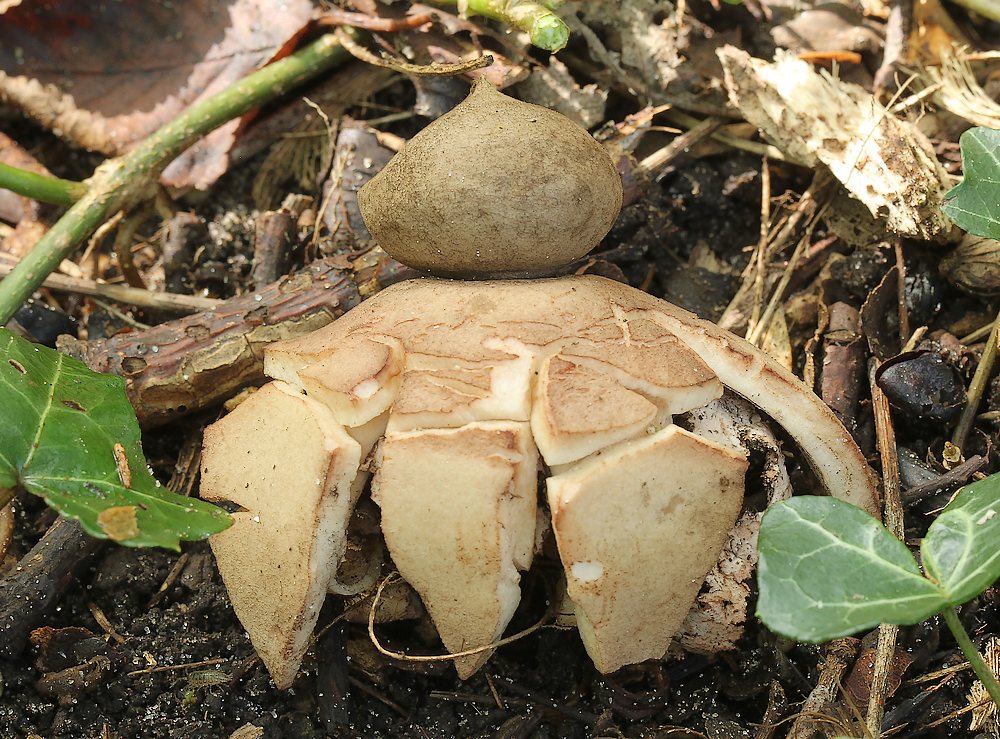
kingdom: Fungi
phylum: Basidiomycota
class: Agaricomycetes
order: Geastrales
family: Geastraceae
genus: Geastrum
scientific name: Geastrum rufescens
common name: kødfarvet stjernebold
